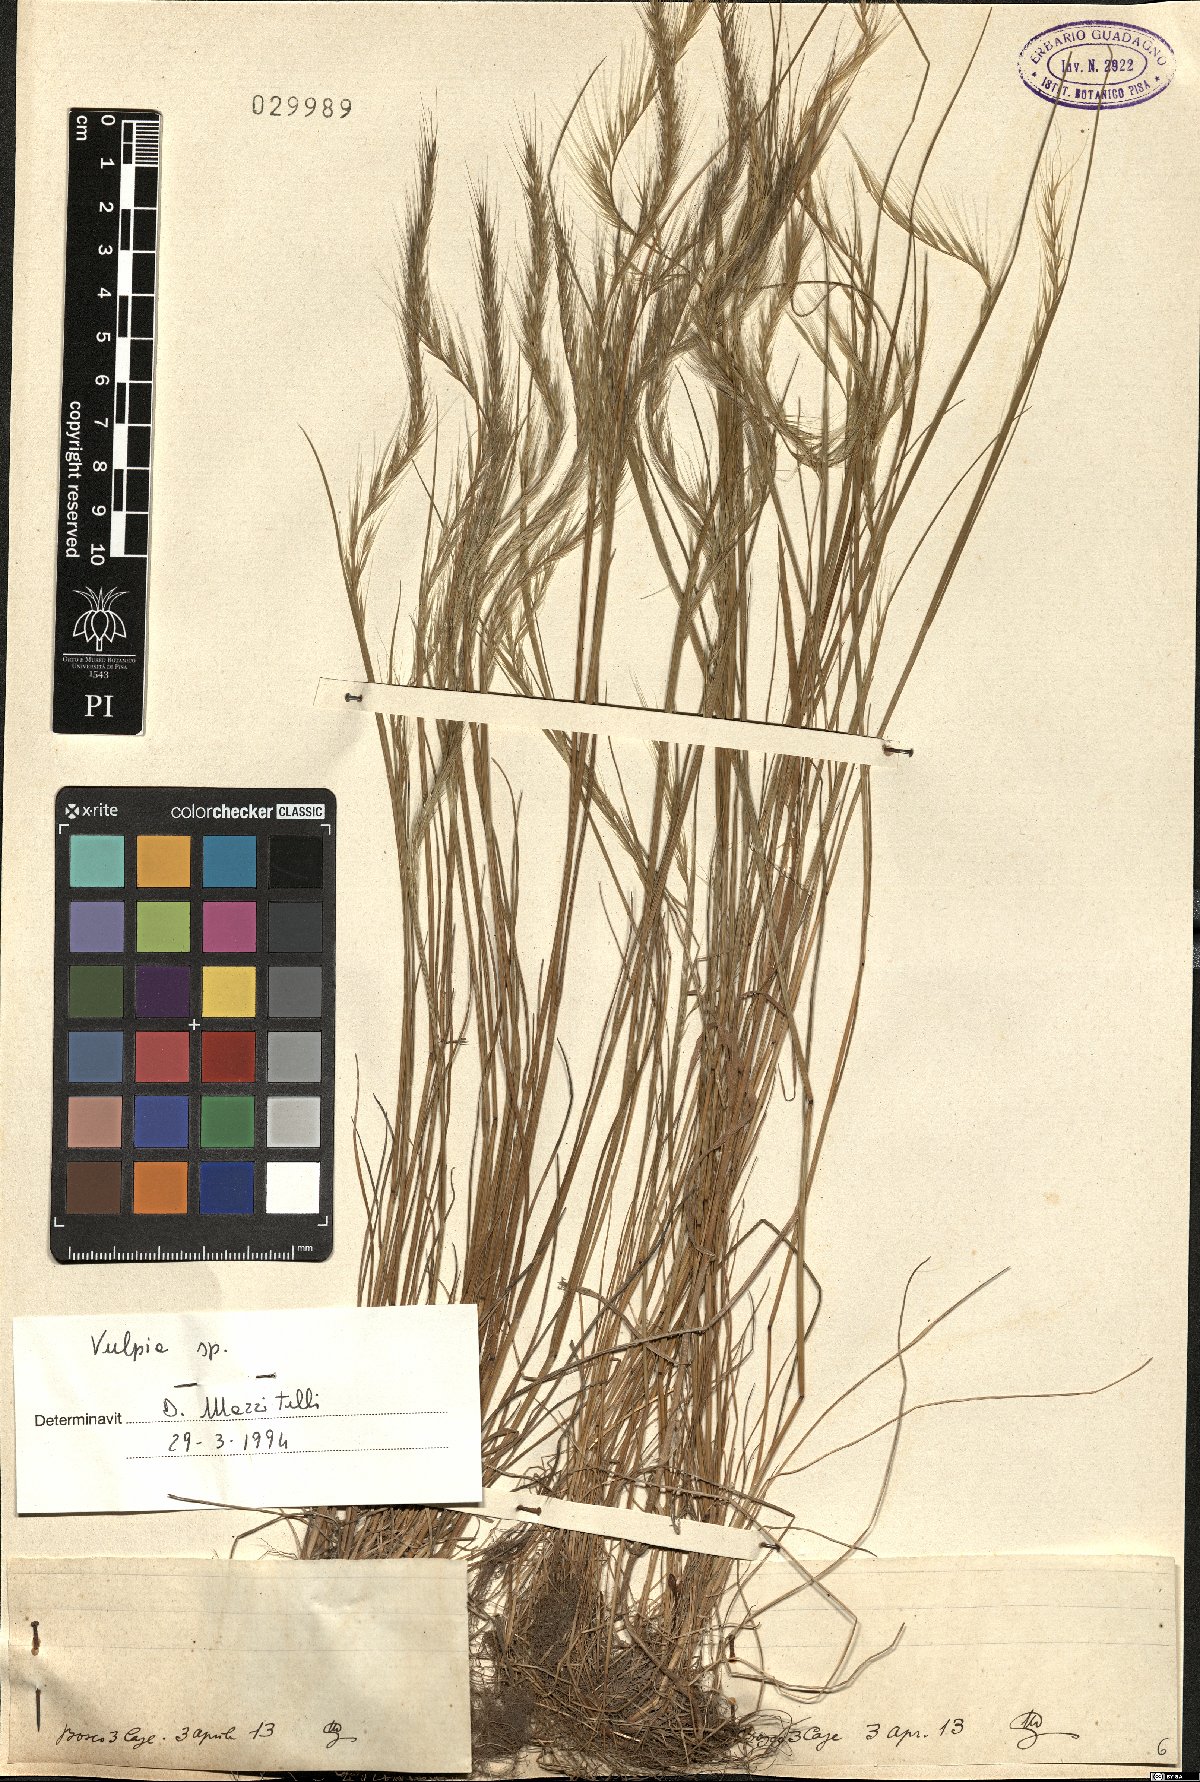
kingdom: Plantae
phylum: Tracheophyta
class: Liliopsida
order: Poales
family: Poaceae
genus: Festuca
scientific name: Festuca
